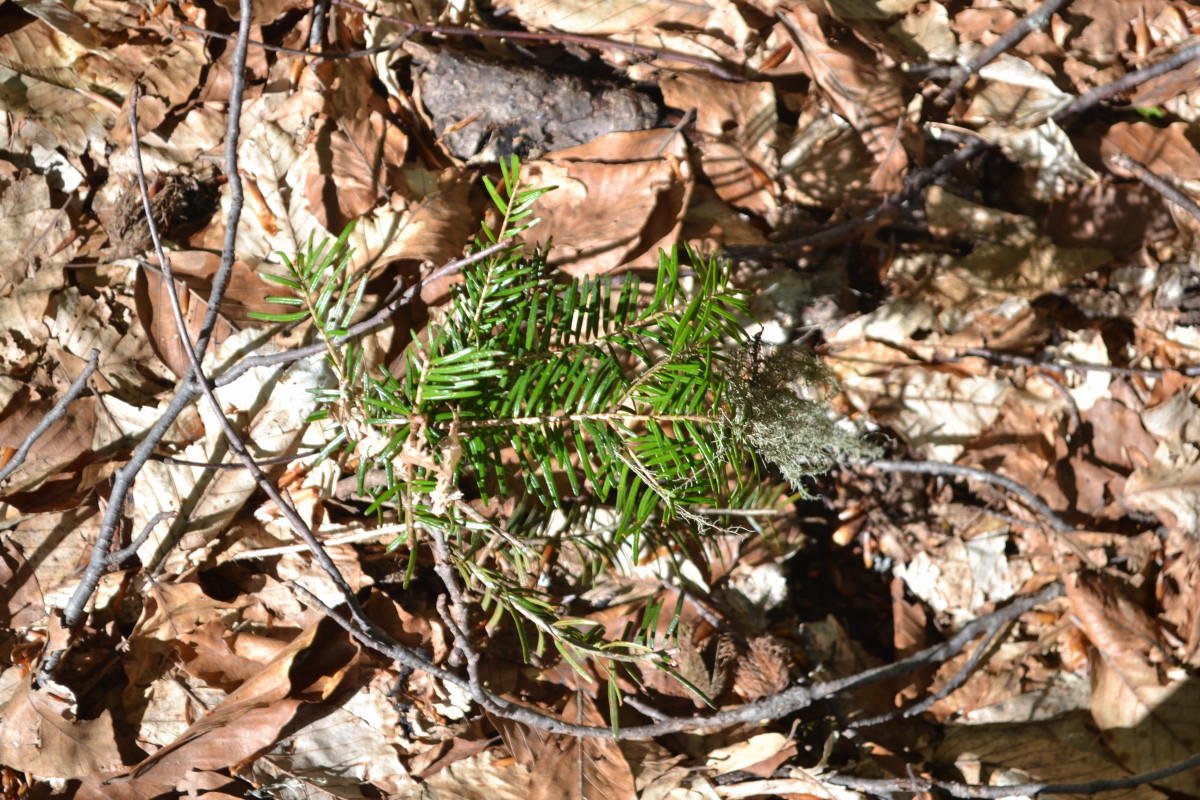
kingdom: Plantae
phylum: Tracheophyta
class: Pinopsida
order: Pinales
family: Taxaceae
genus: Taxus
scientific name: Taxus baccata
